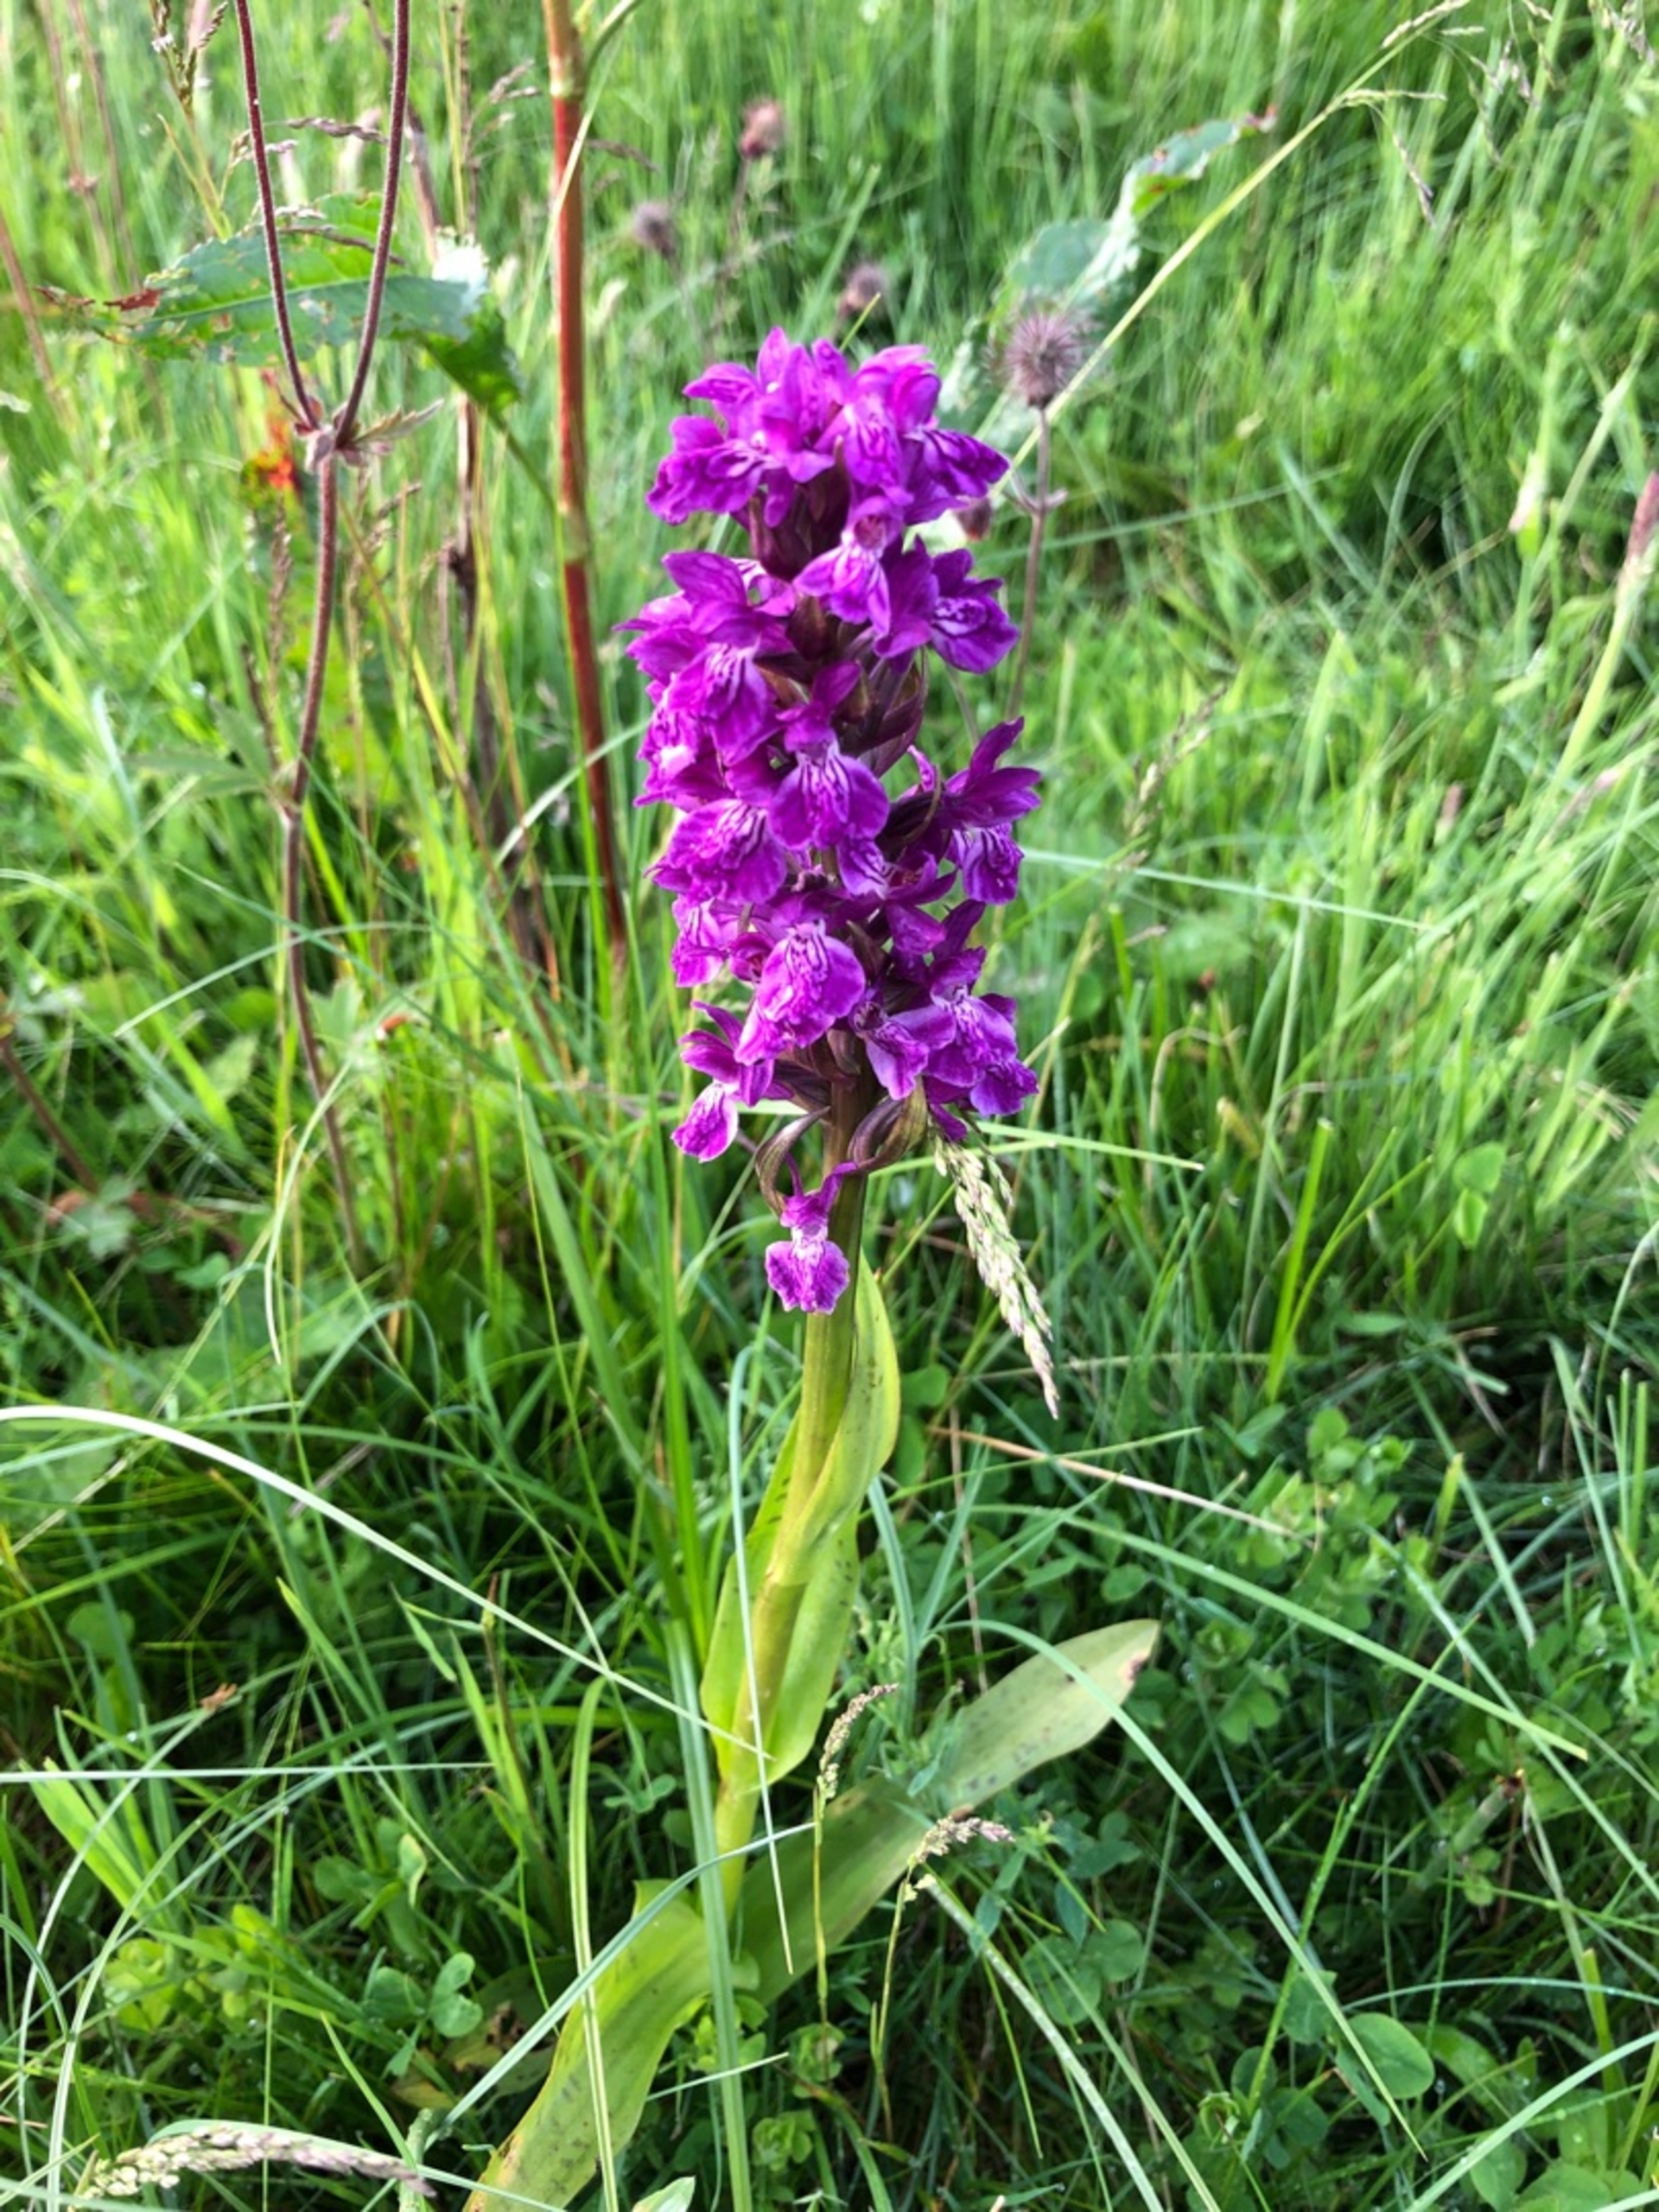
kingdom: Plantae
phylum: Tracheophyta
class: Liliopsida
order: Asparagales
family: Orchidaceae
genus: Dactylorhiza
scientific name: Dactylorhiza majalis
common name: Maj-gøgeurt
